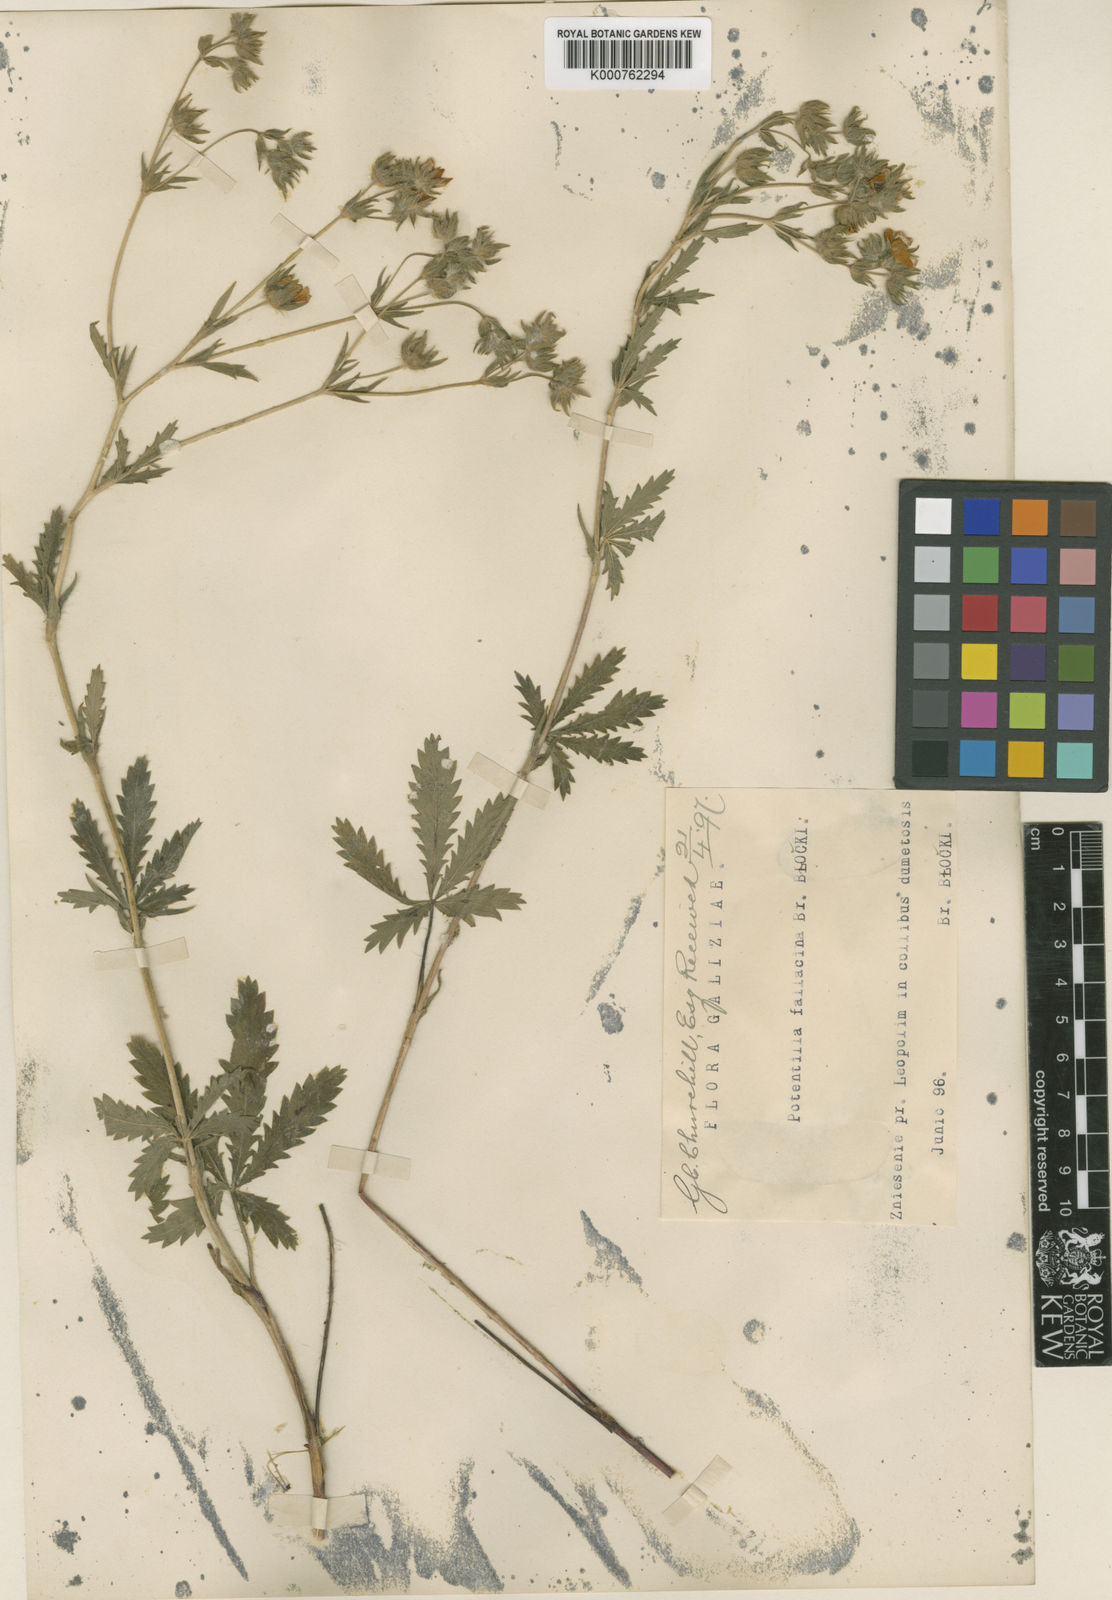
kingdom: Plantae
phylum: Tracheophyta
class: Magnoliopsida
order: Rosales
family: Rosaceae
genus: Potentilla
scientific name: Potentilla recta
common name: Sulphur cinquefoil
